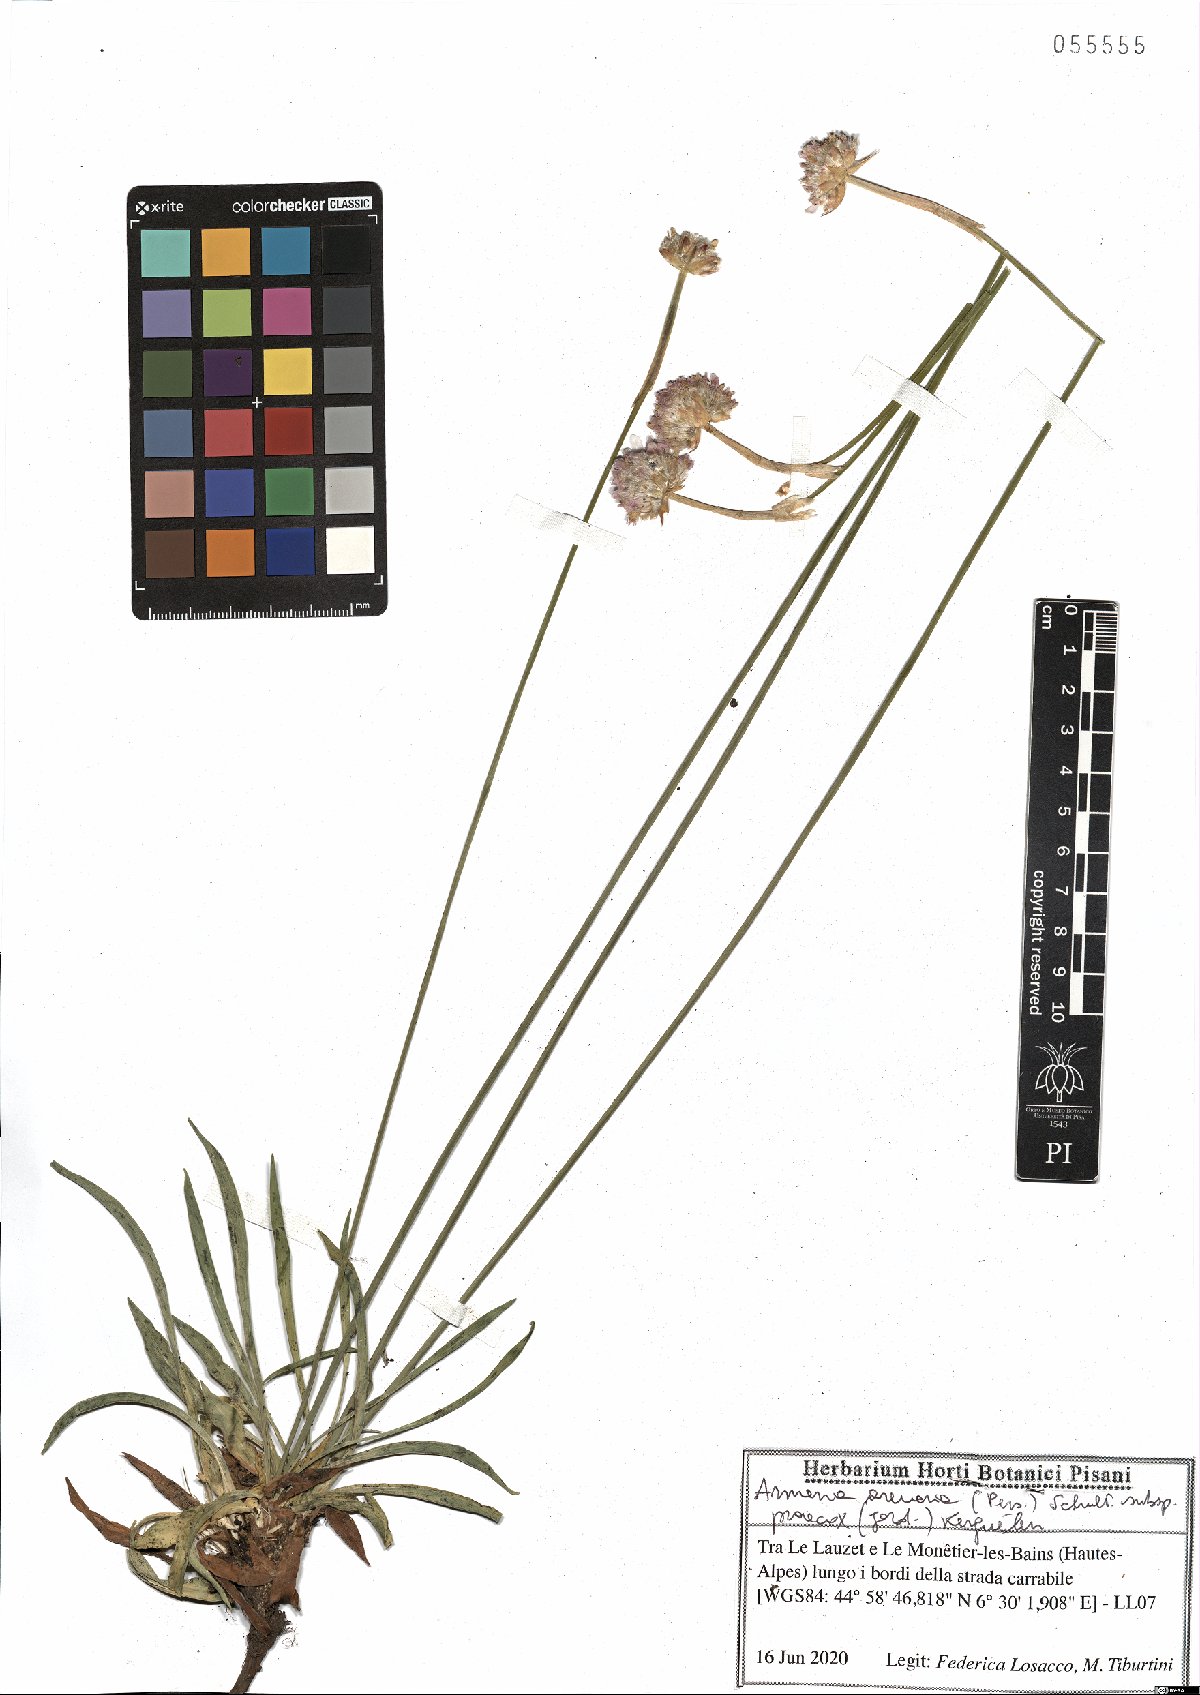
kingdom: Plantae
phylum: Tracheophyta
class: Magnoliopsida
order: Caryophyllales
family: Plumbaginaceae
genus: Armeria
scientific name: Armeria arenaria
